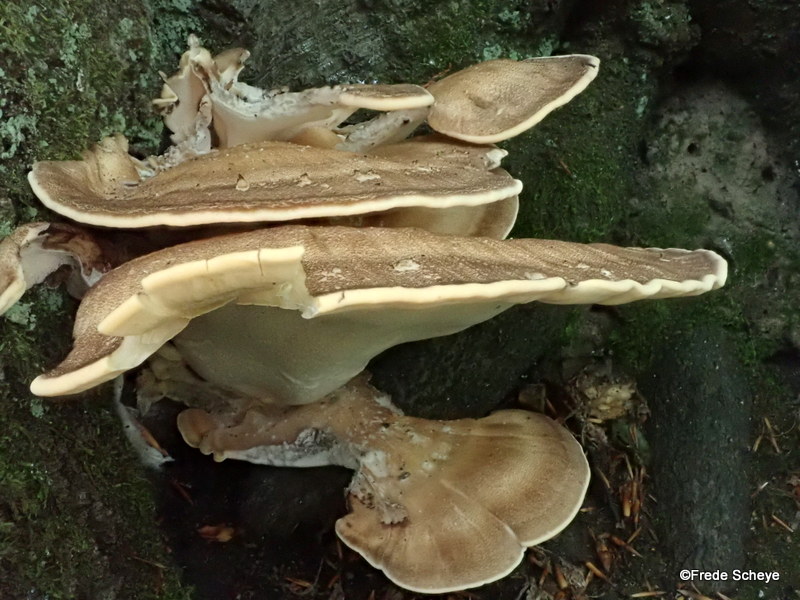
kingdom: Fungi
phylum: Basidiomycota
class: Agaricomycetes
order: Polyporales
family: Meripilaceae
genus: Meripilus
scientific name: Meripilus giganteus
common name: kæmpeporesvamp
